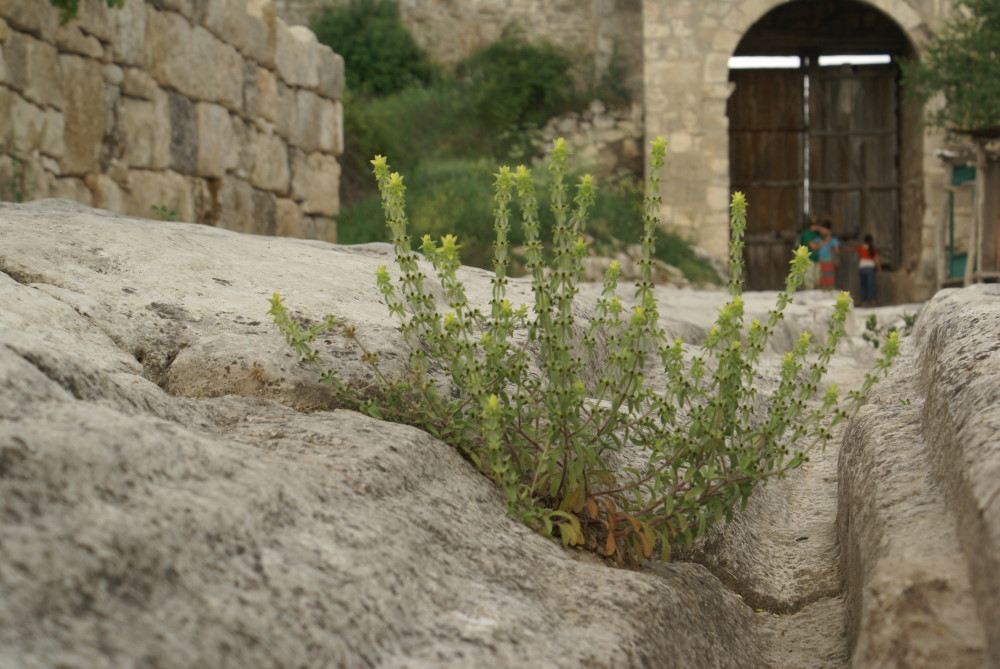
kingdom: Plantae
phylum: Tracheophyta
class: Magnoliopsida
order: Lamiales
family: Lamiaceae
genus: Sideritis
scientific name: Sideritis montana
